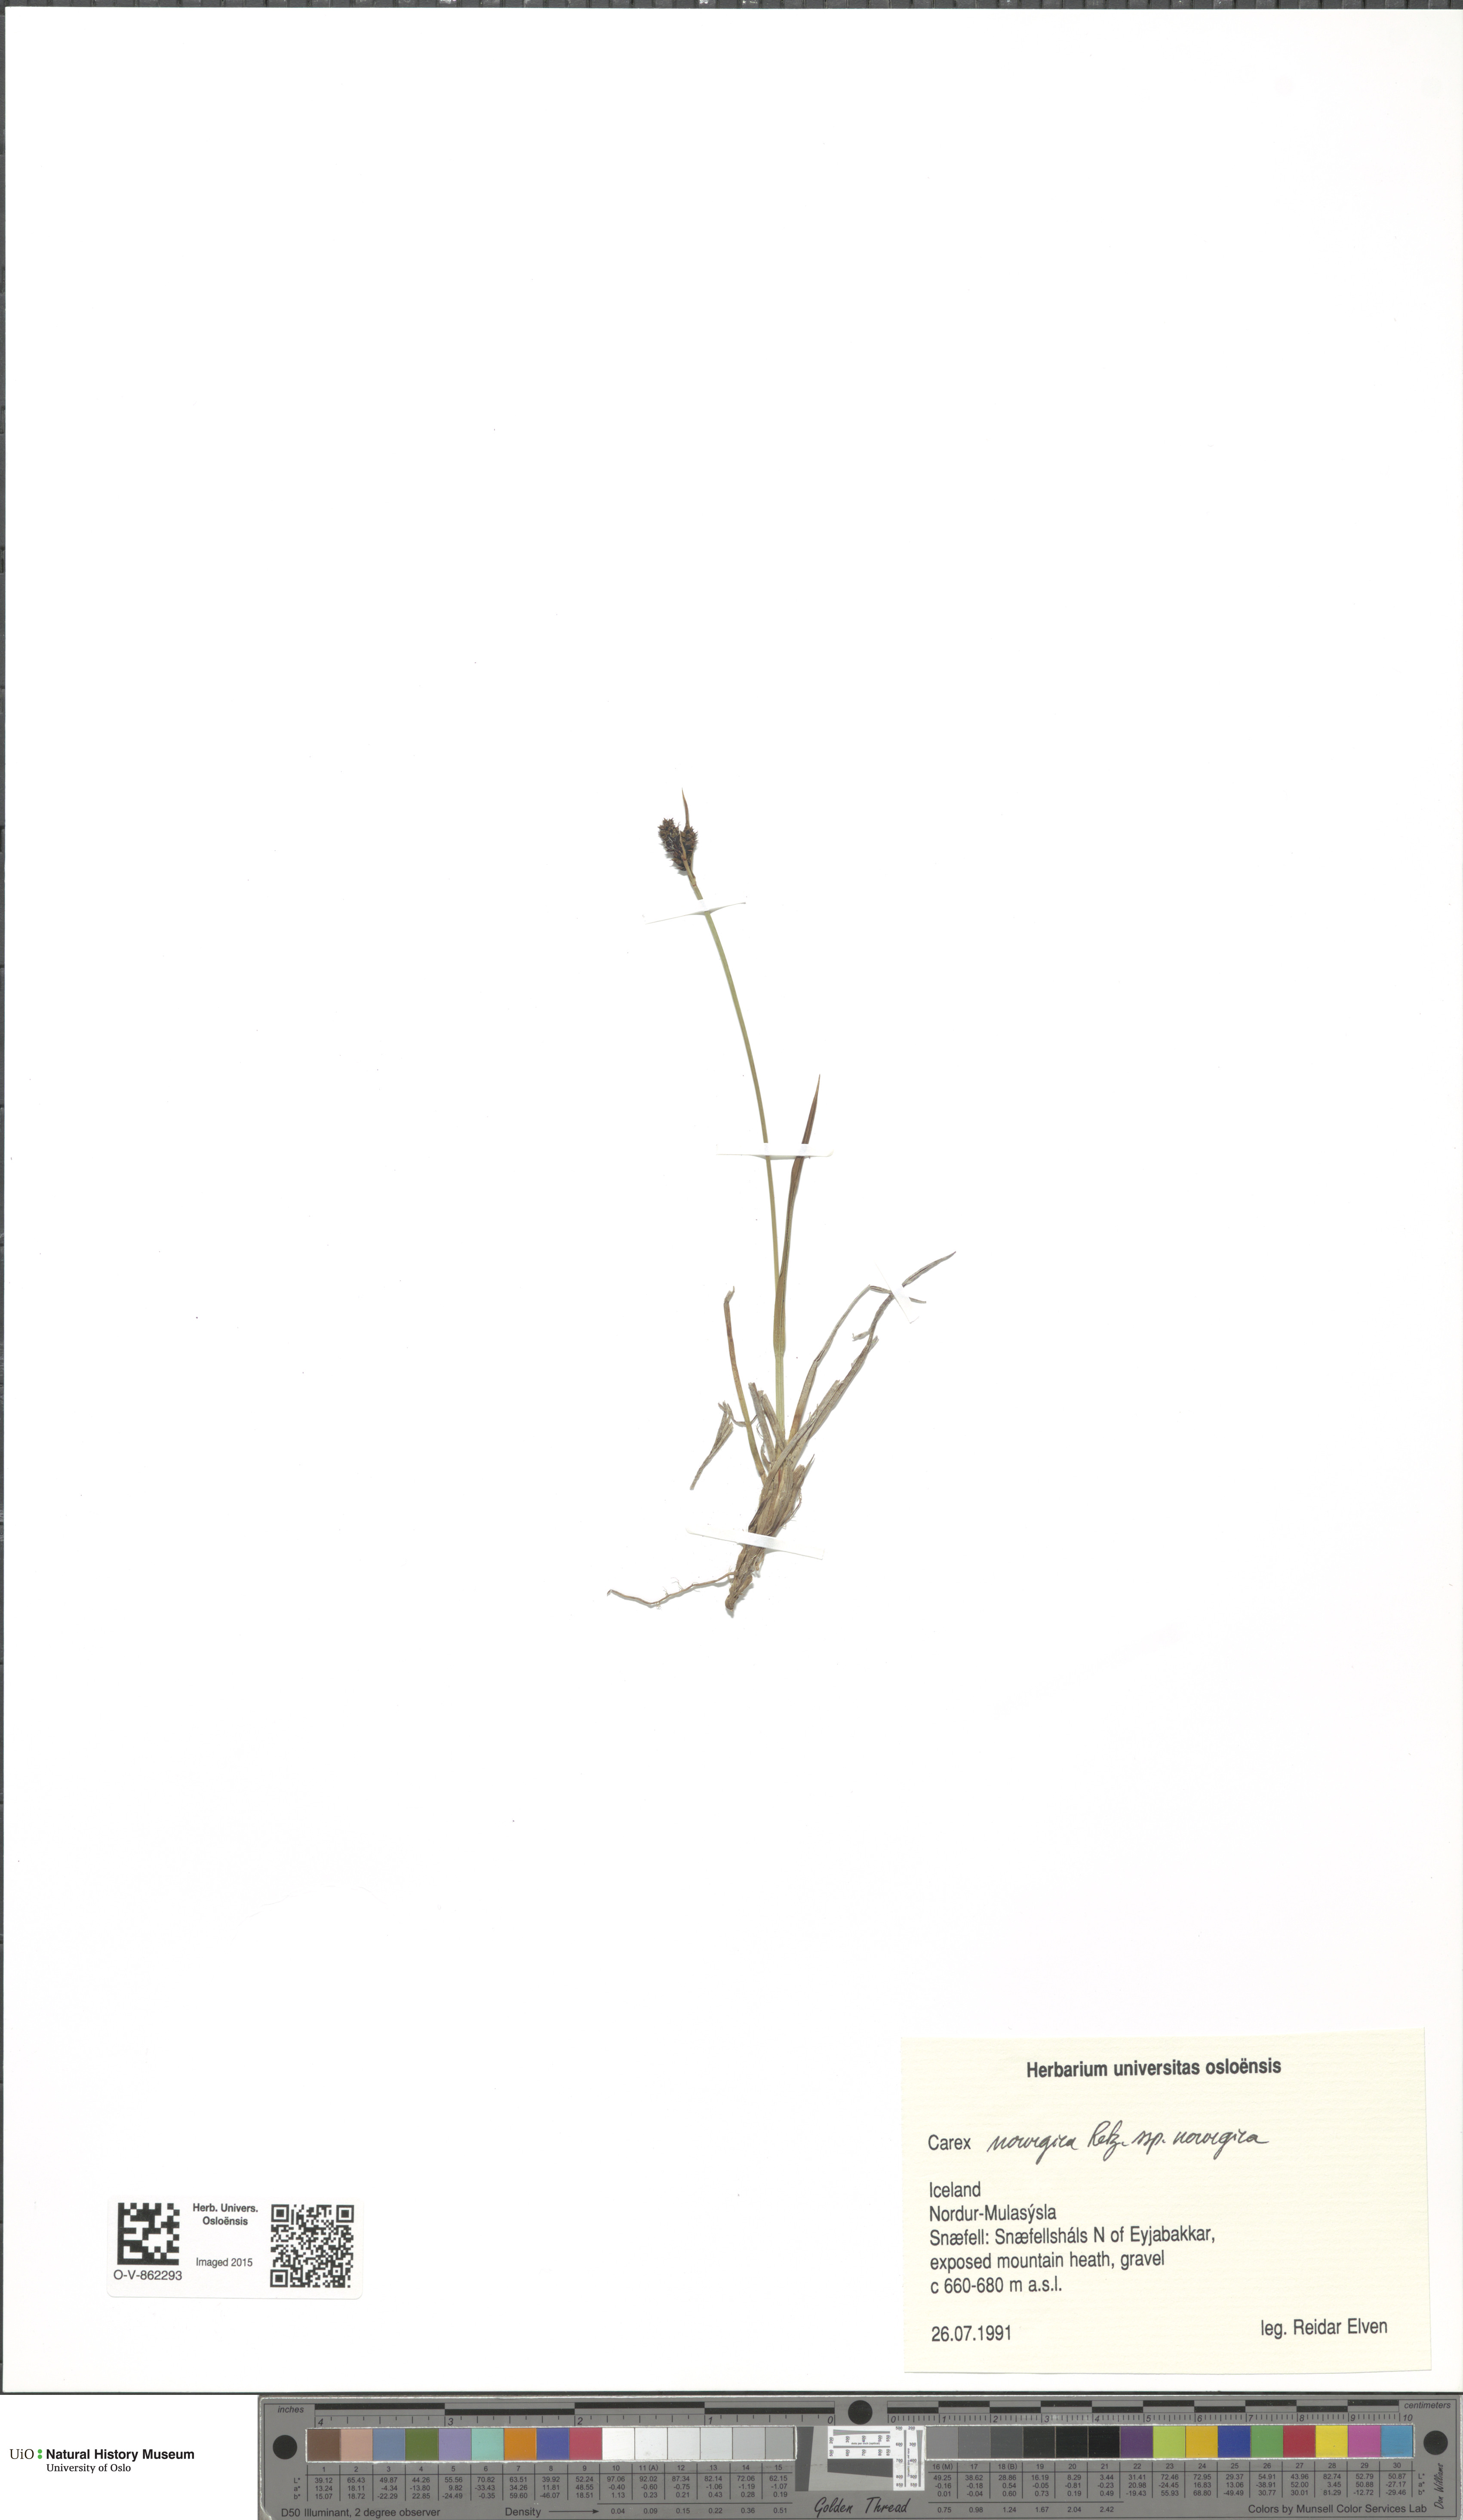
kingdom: Plantae
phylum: Tracheophyta
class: Liliopsida
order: Poales
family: Cyperaceae
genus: Carex
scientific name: Carex norvegica
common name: Close-headed alpine-sedge
